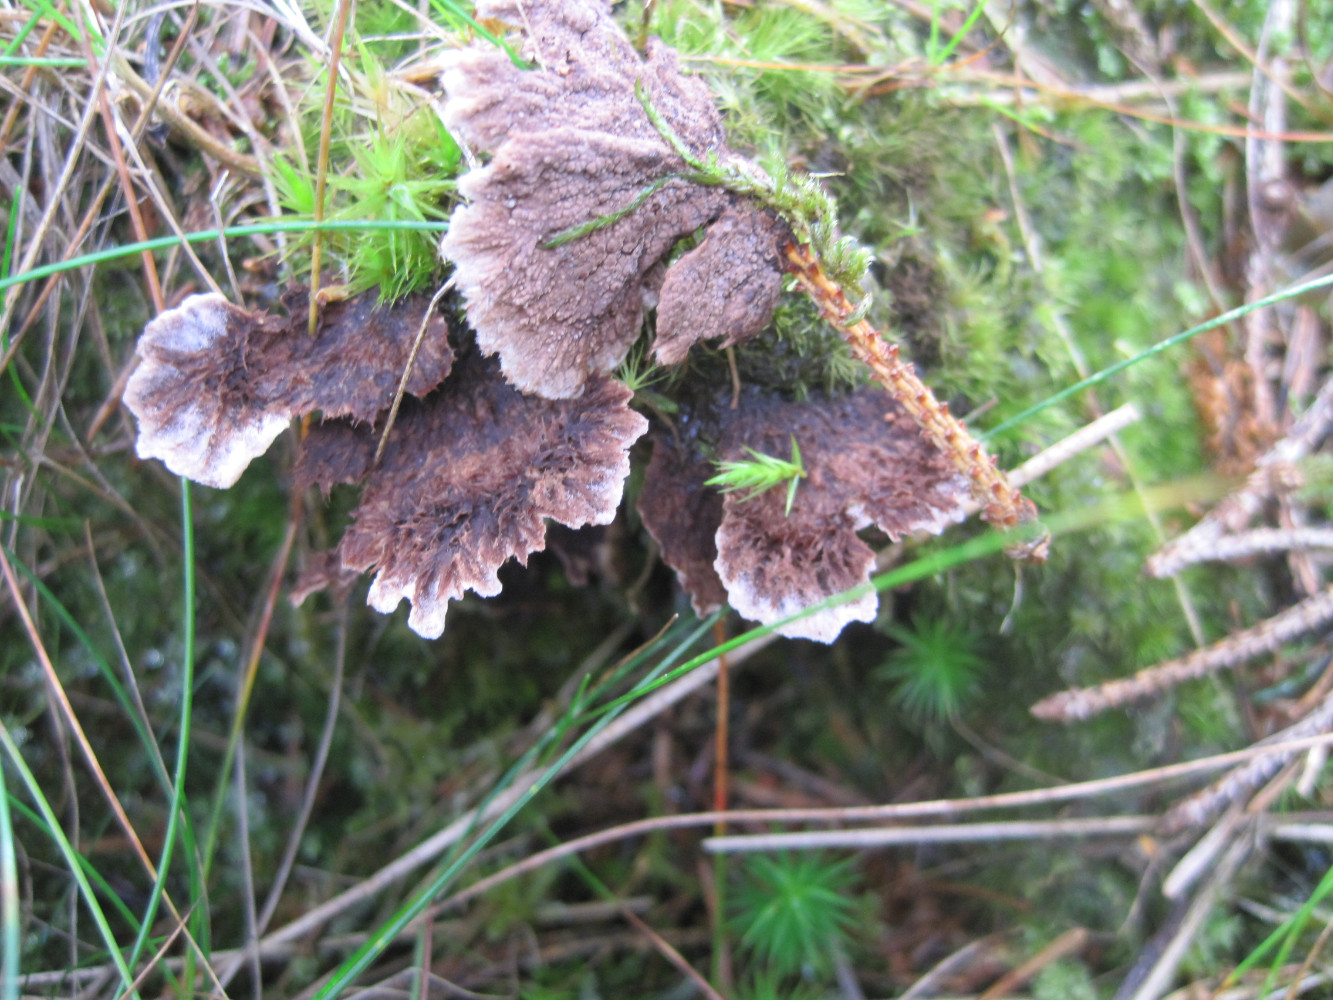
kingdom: Fungi
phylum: Basidiomycota
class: Agaricomycetes
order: Thelephorales
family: Thelephoraceae
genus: Thelephora
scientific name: Thelephora terrestris
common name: fliget frynsesvamp
